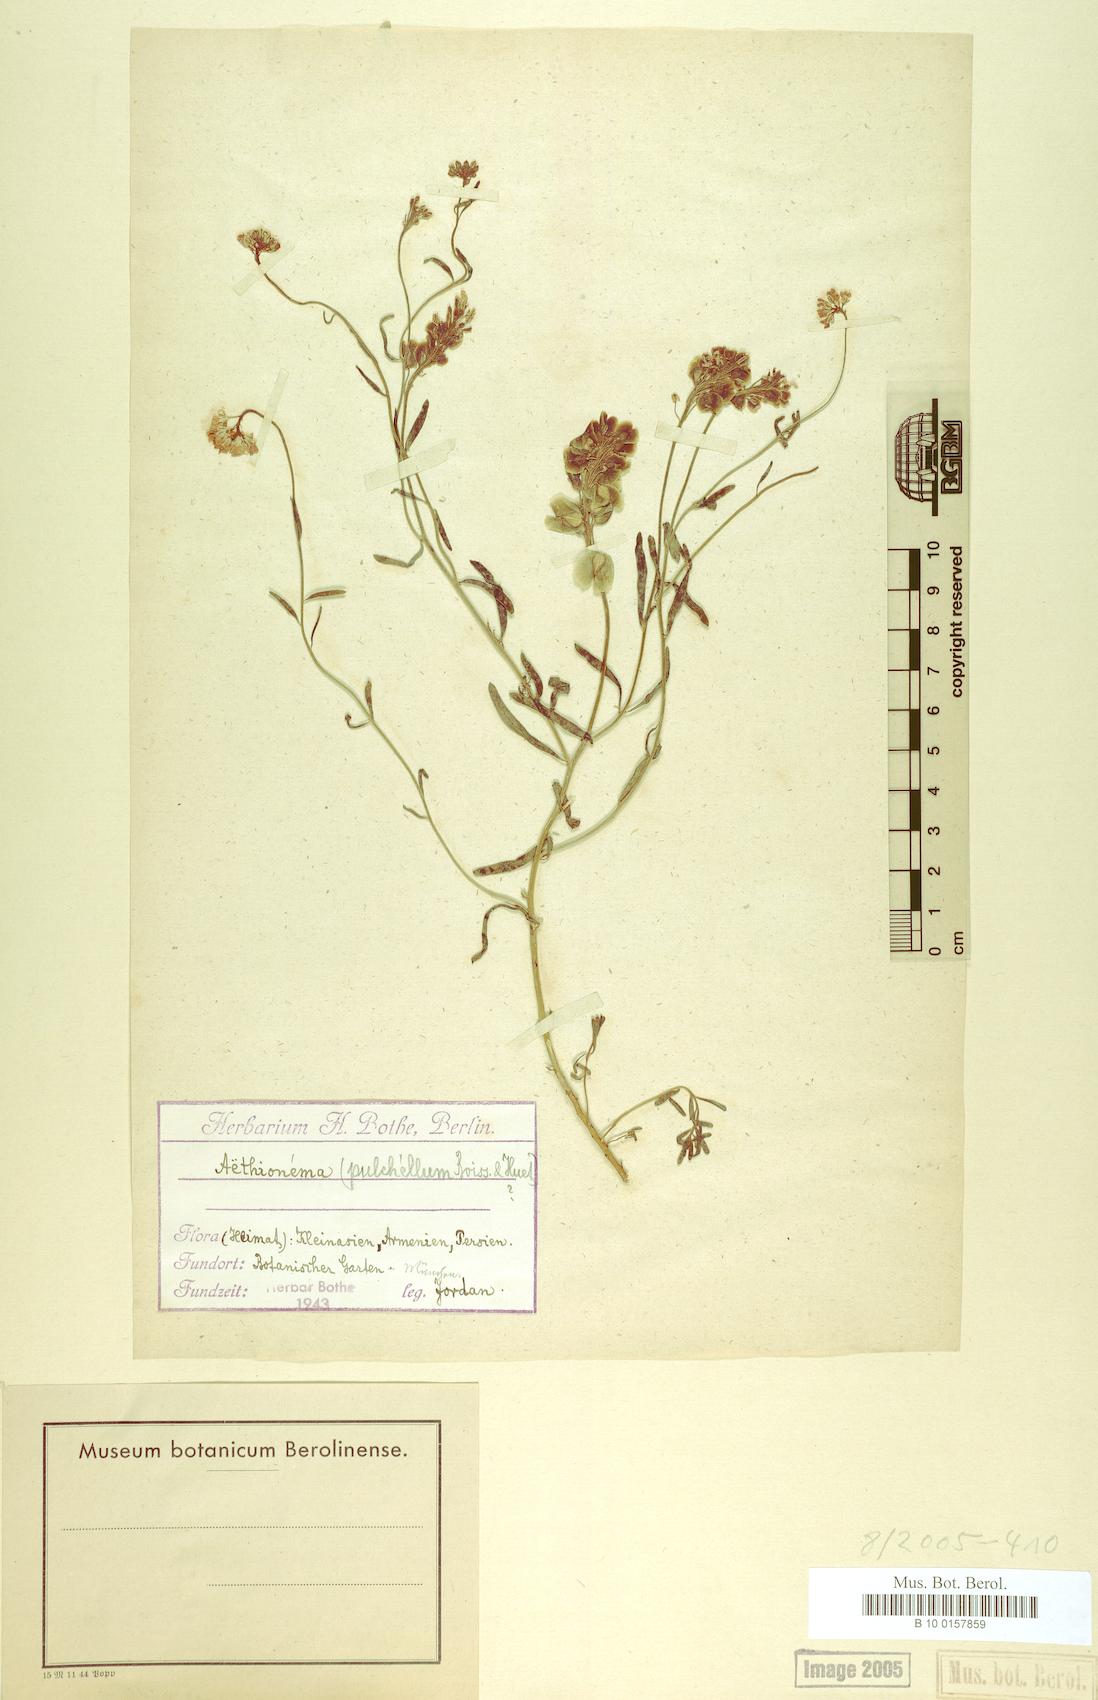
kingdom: Plantae
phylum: Tracheophyta
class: Magnoliopsida
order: Brassicales
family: Brassicaceae
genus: Aethionema
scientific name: Aethionema grandiflorum
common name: Persian stonecress
